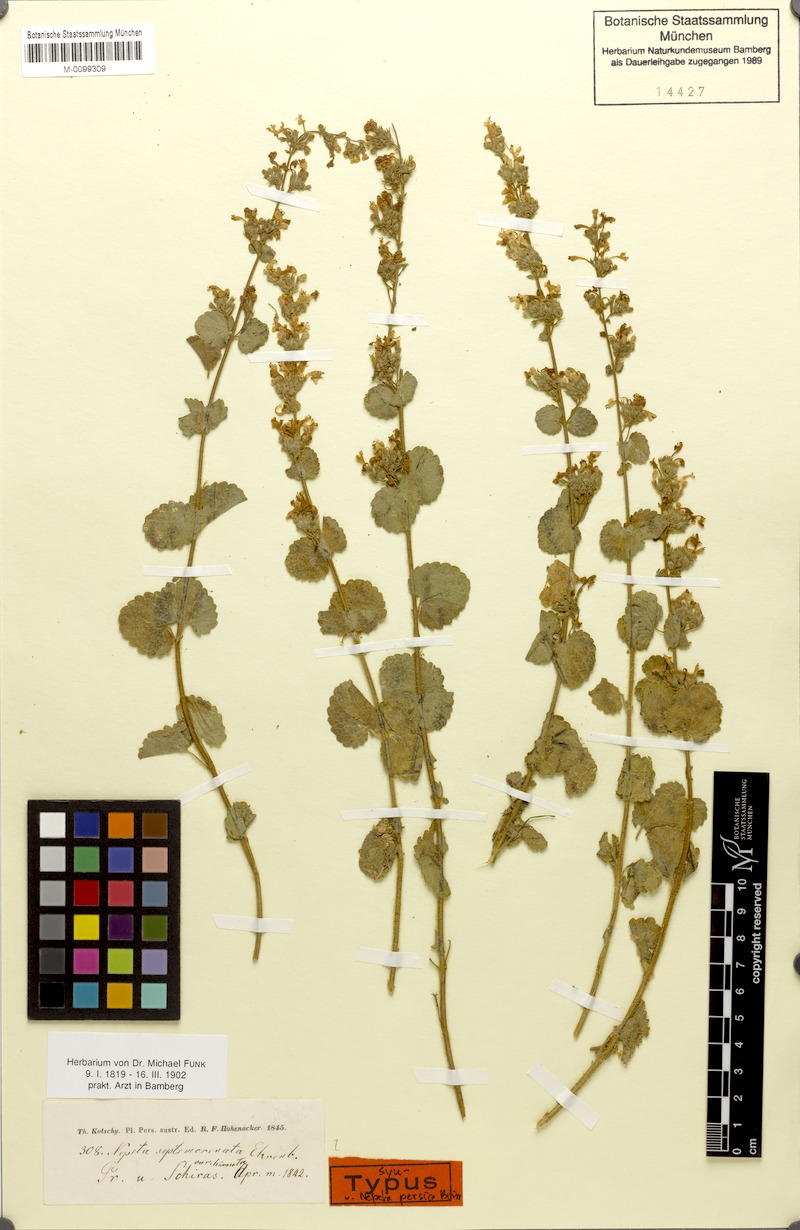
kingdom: Plantae
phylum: Tracheophyta
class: Magnoliopsida
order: Lamiales
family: Lamiaceae
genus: Nepeta
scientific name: Nepeta persica
